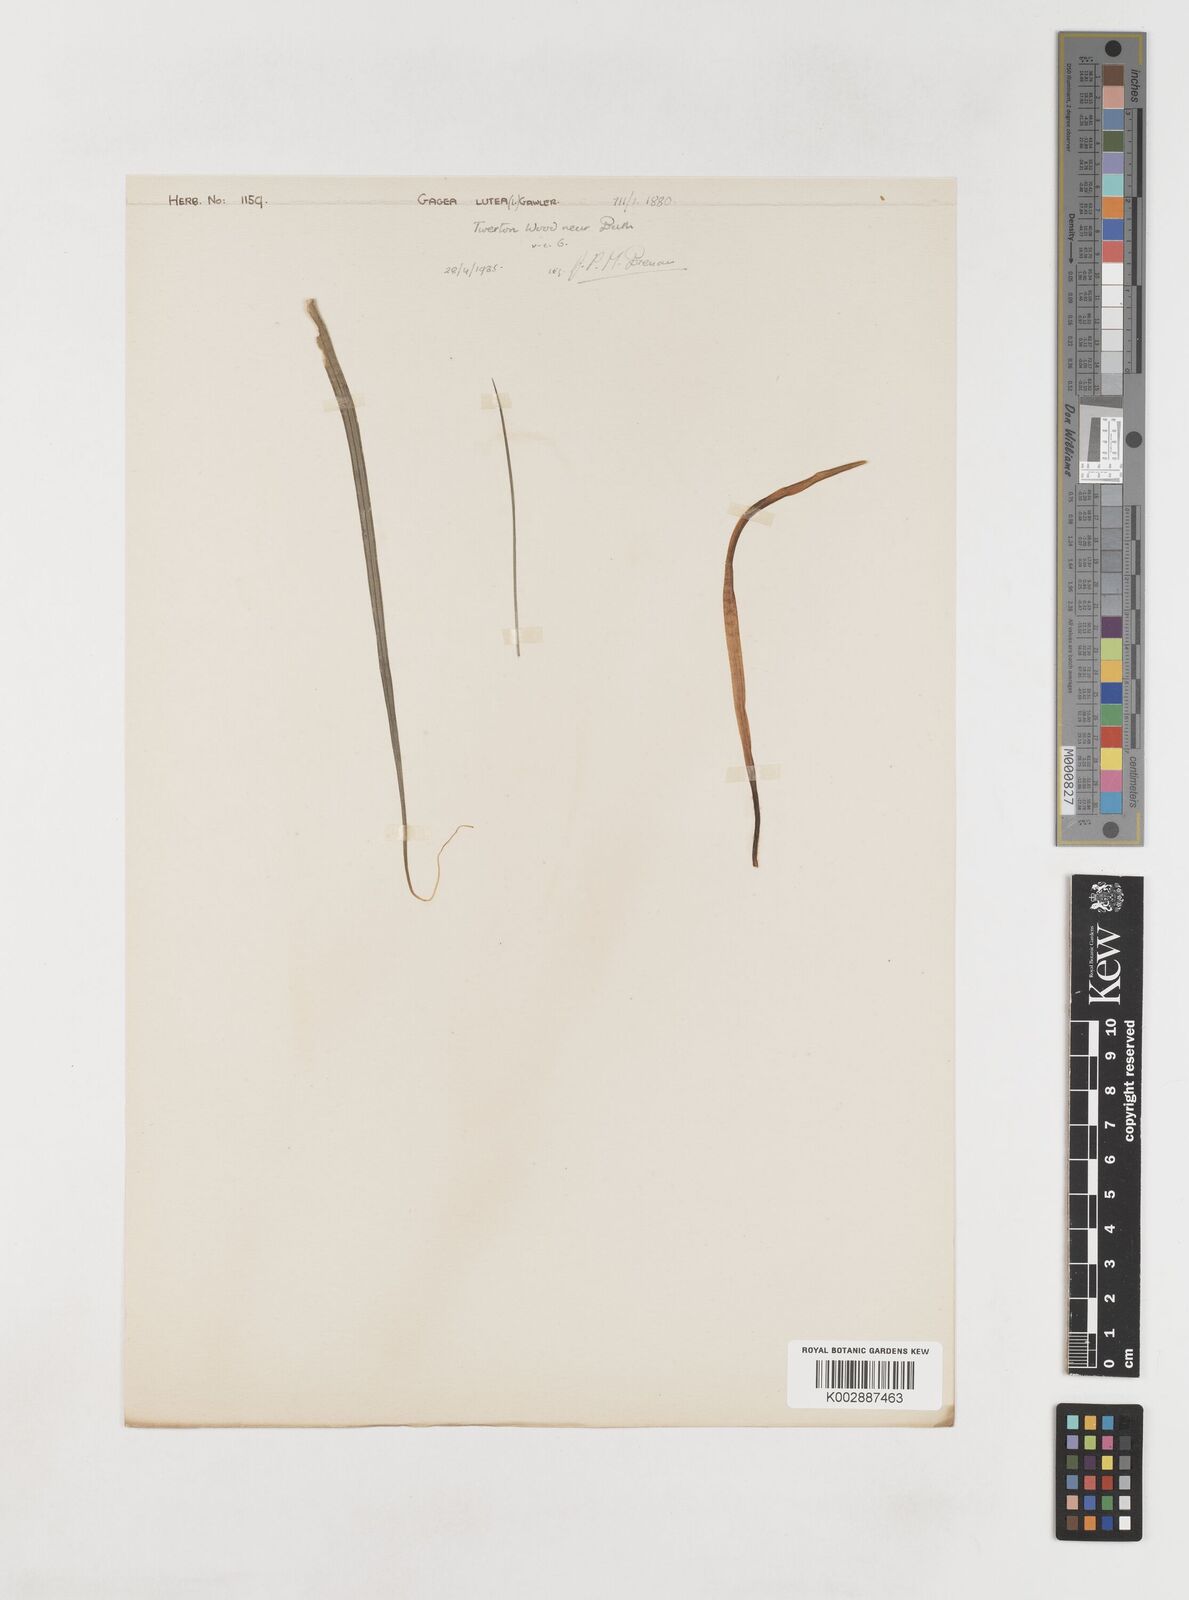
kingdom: Plantae
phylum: Tracheophyta
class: Liliopsida
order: Liliales
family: Liliaceae
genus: Gagea
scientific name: Gagea lutea
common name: Yellow star-of-bethlehem
